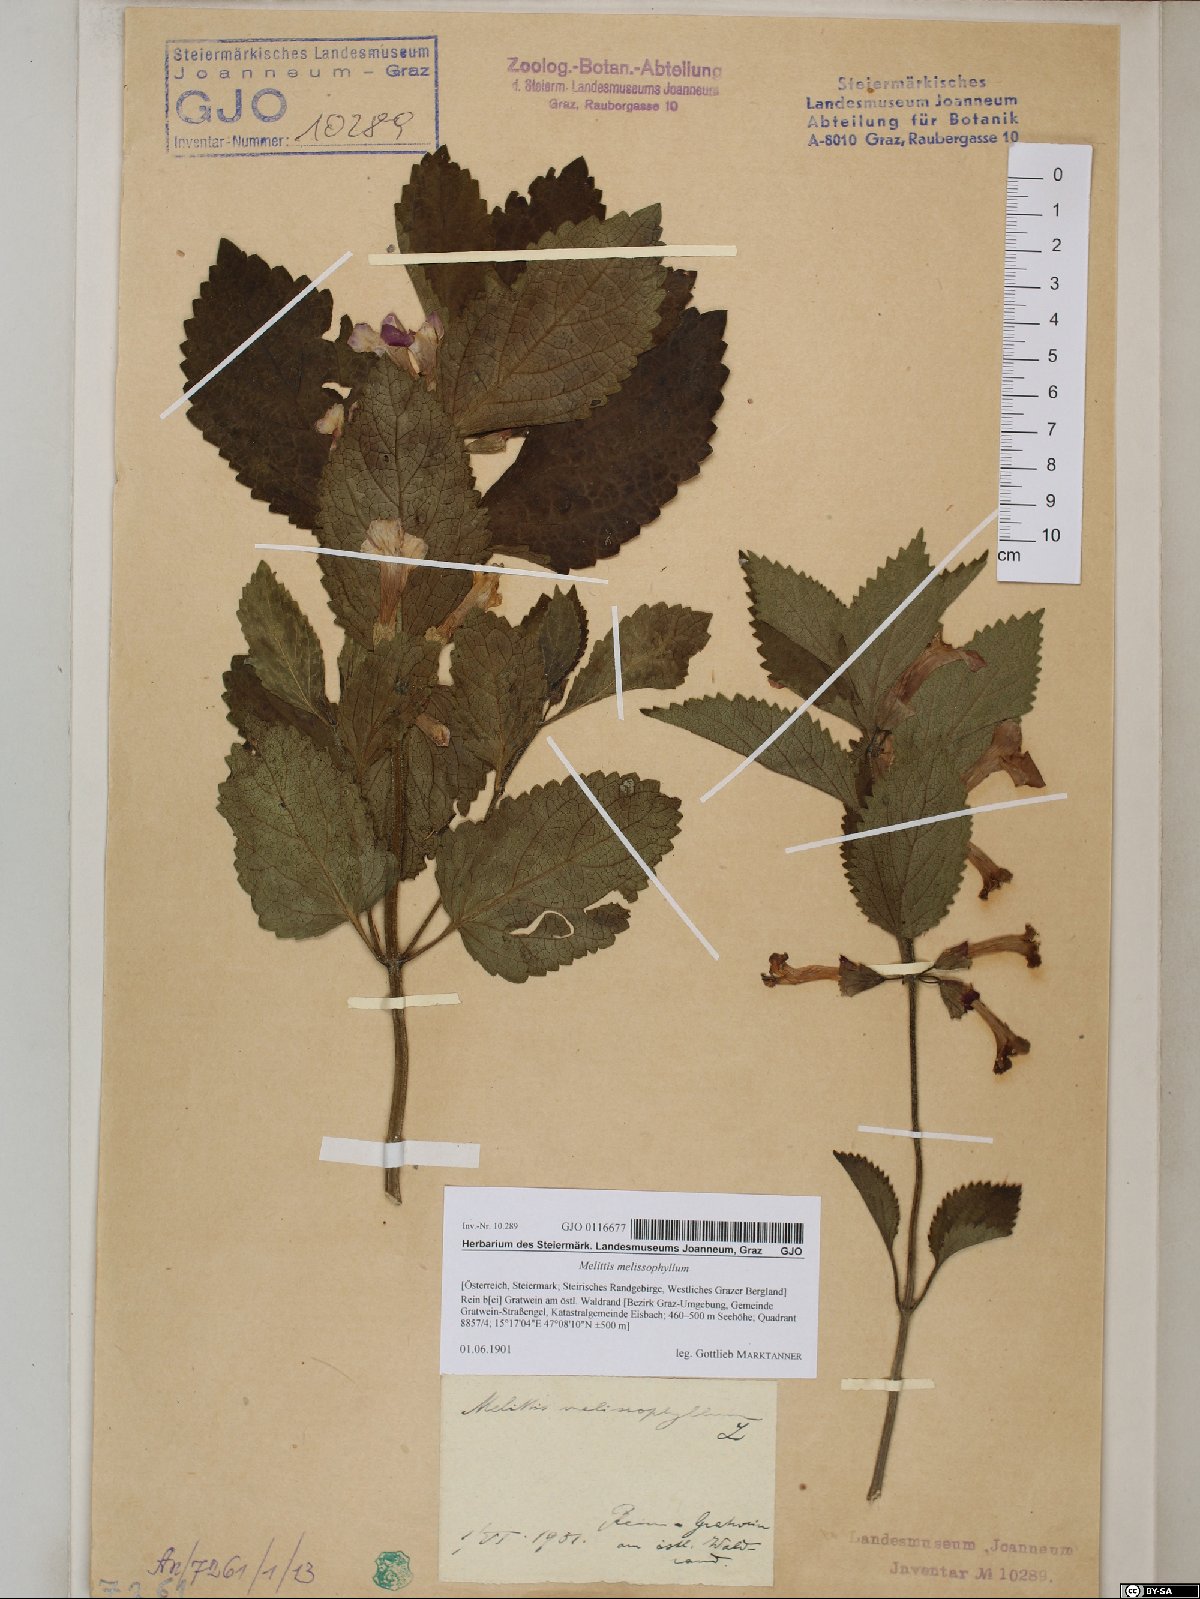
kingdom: Plantae
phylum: Tracheophyta
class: Magnoliopsida
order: Lamiales
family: Lamiaceae
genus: Melittis
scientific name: Melittis melissophyllum
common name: Bastard balm
